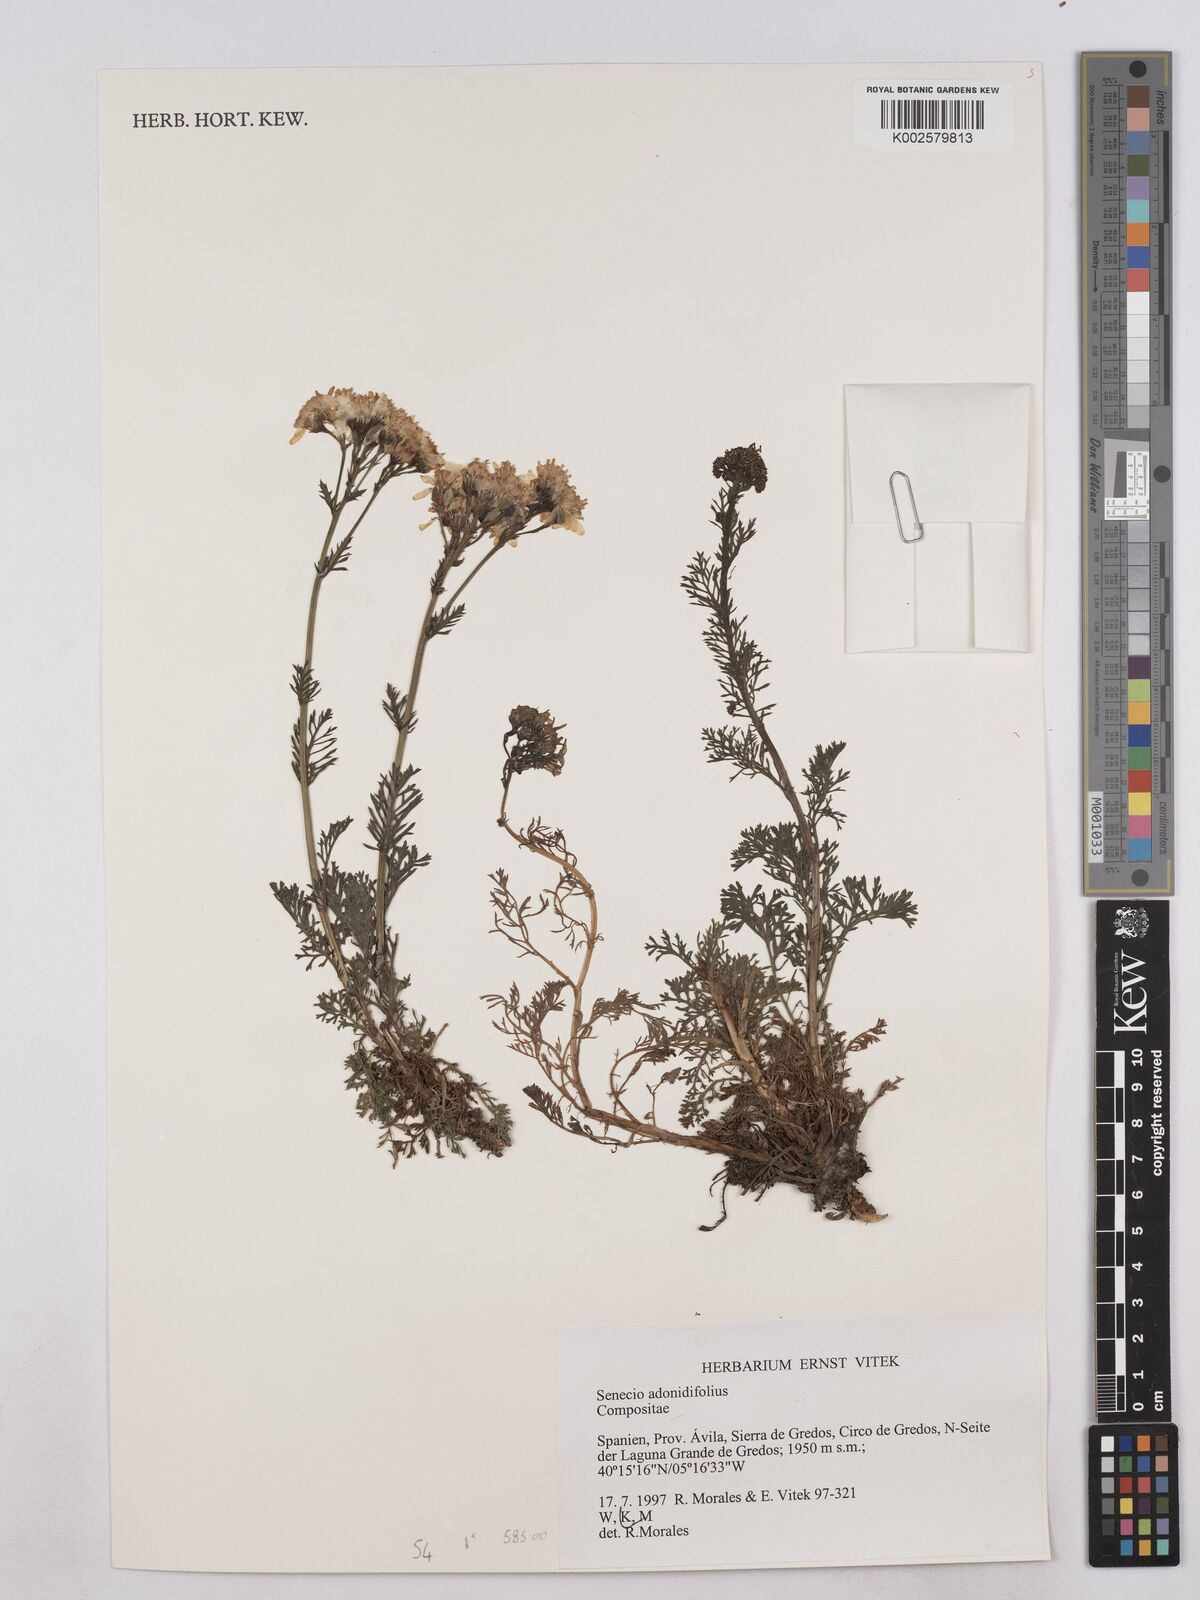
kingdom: Plantae
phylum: Tracheophyta
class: Magnoliopsida
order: Asterales
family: Asteraceae
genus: Jacobaea
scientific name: Jacobaea adonidifolia
